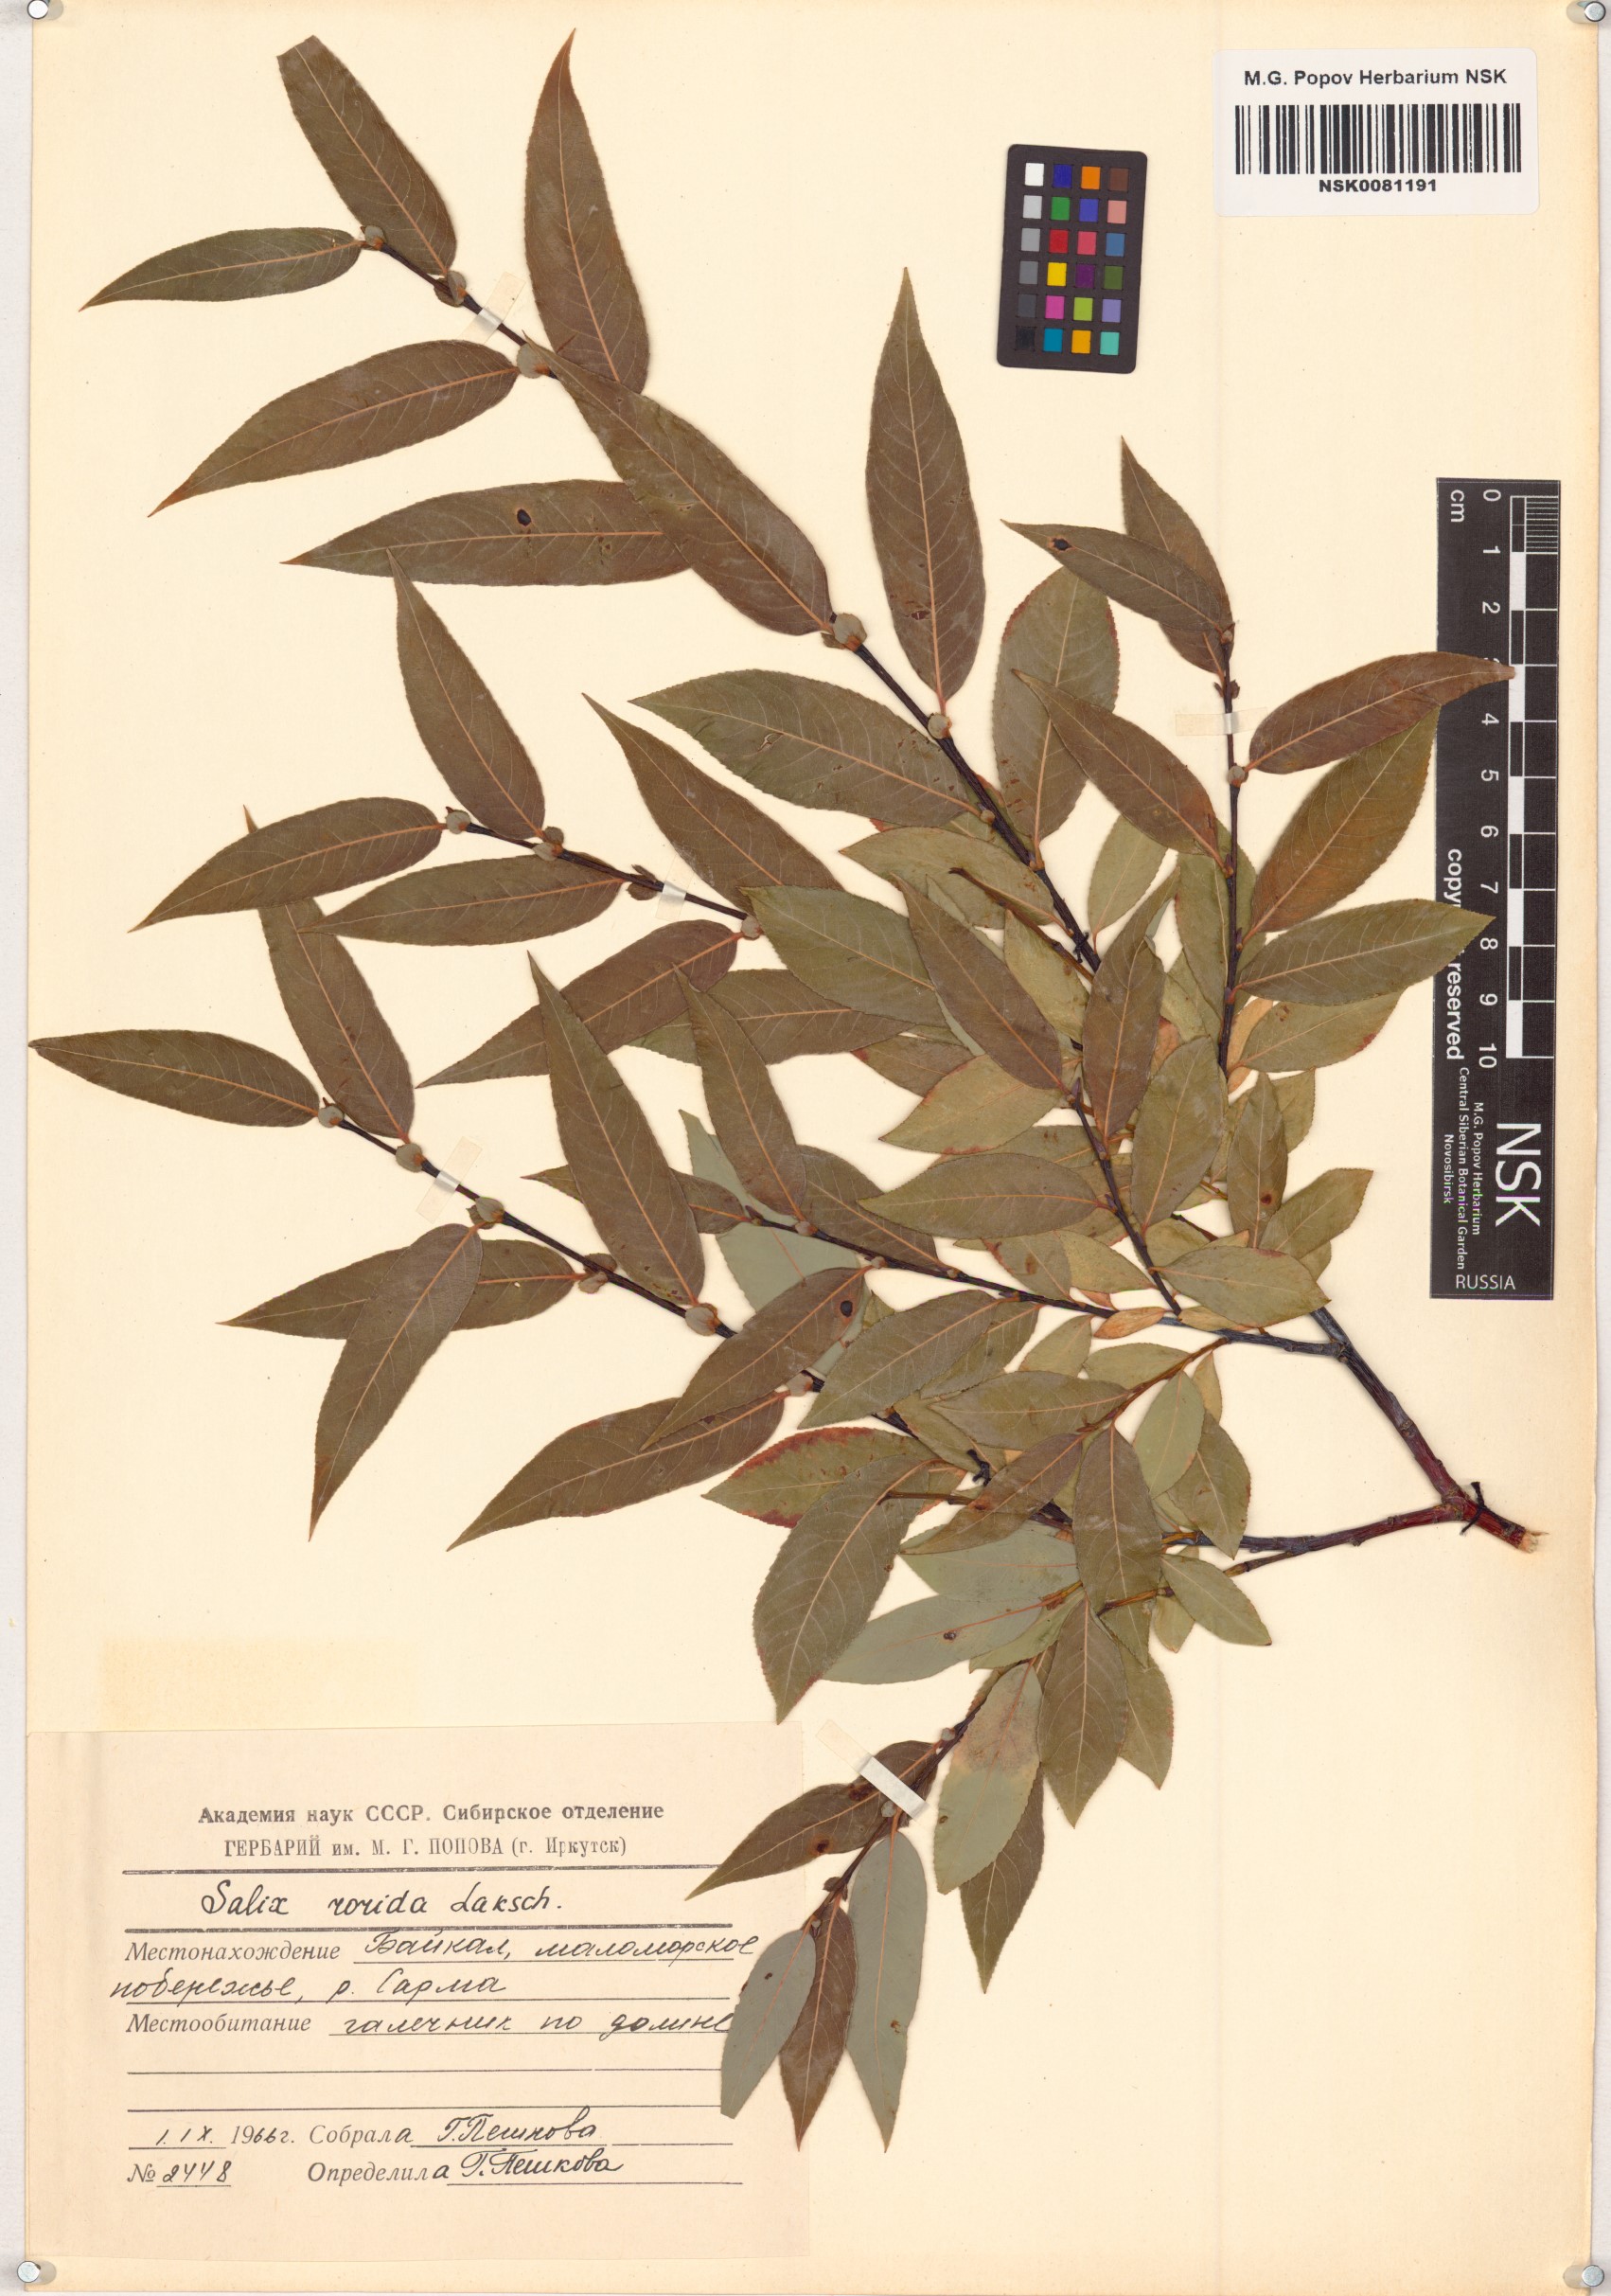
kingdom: Plantae
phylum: Tracheophyta
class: Magnoliopsida
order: Malpighiales
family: Salicaceae
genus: Salix
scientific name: Salix rorida
